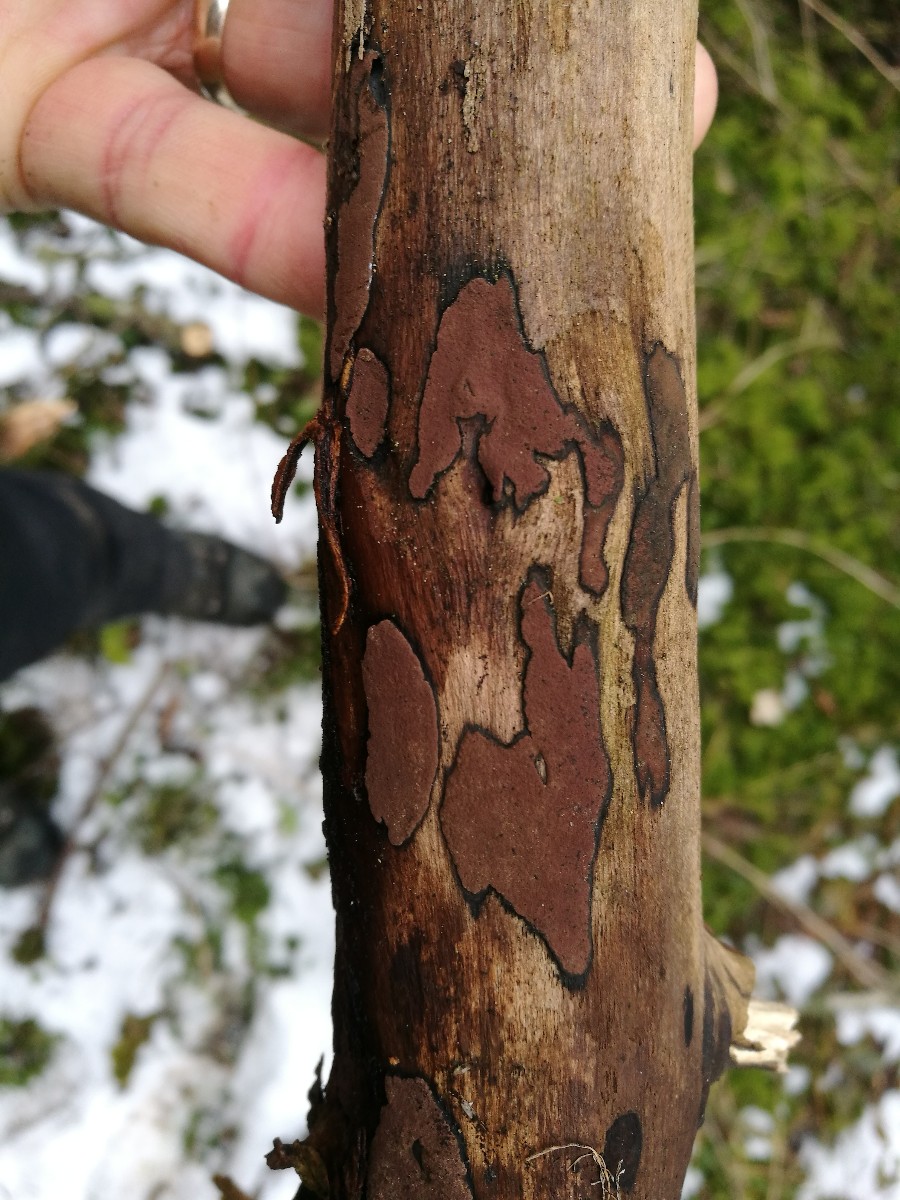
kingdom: Fungi
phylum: Ascomycota
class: Sordariomycetes
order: Xylariales
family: Hypoxylaceae
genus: Hypoxylon
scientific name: Hypoxylon petriniae
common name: nedsænket kulbær
